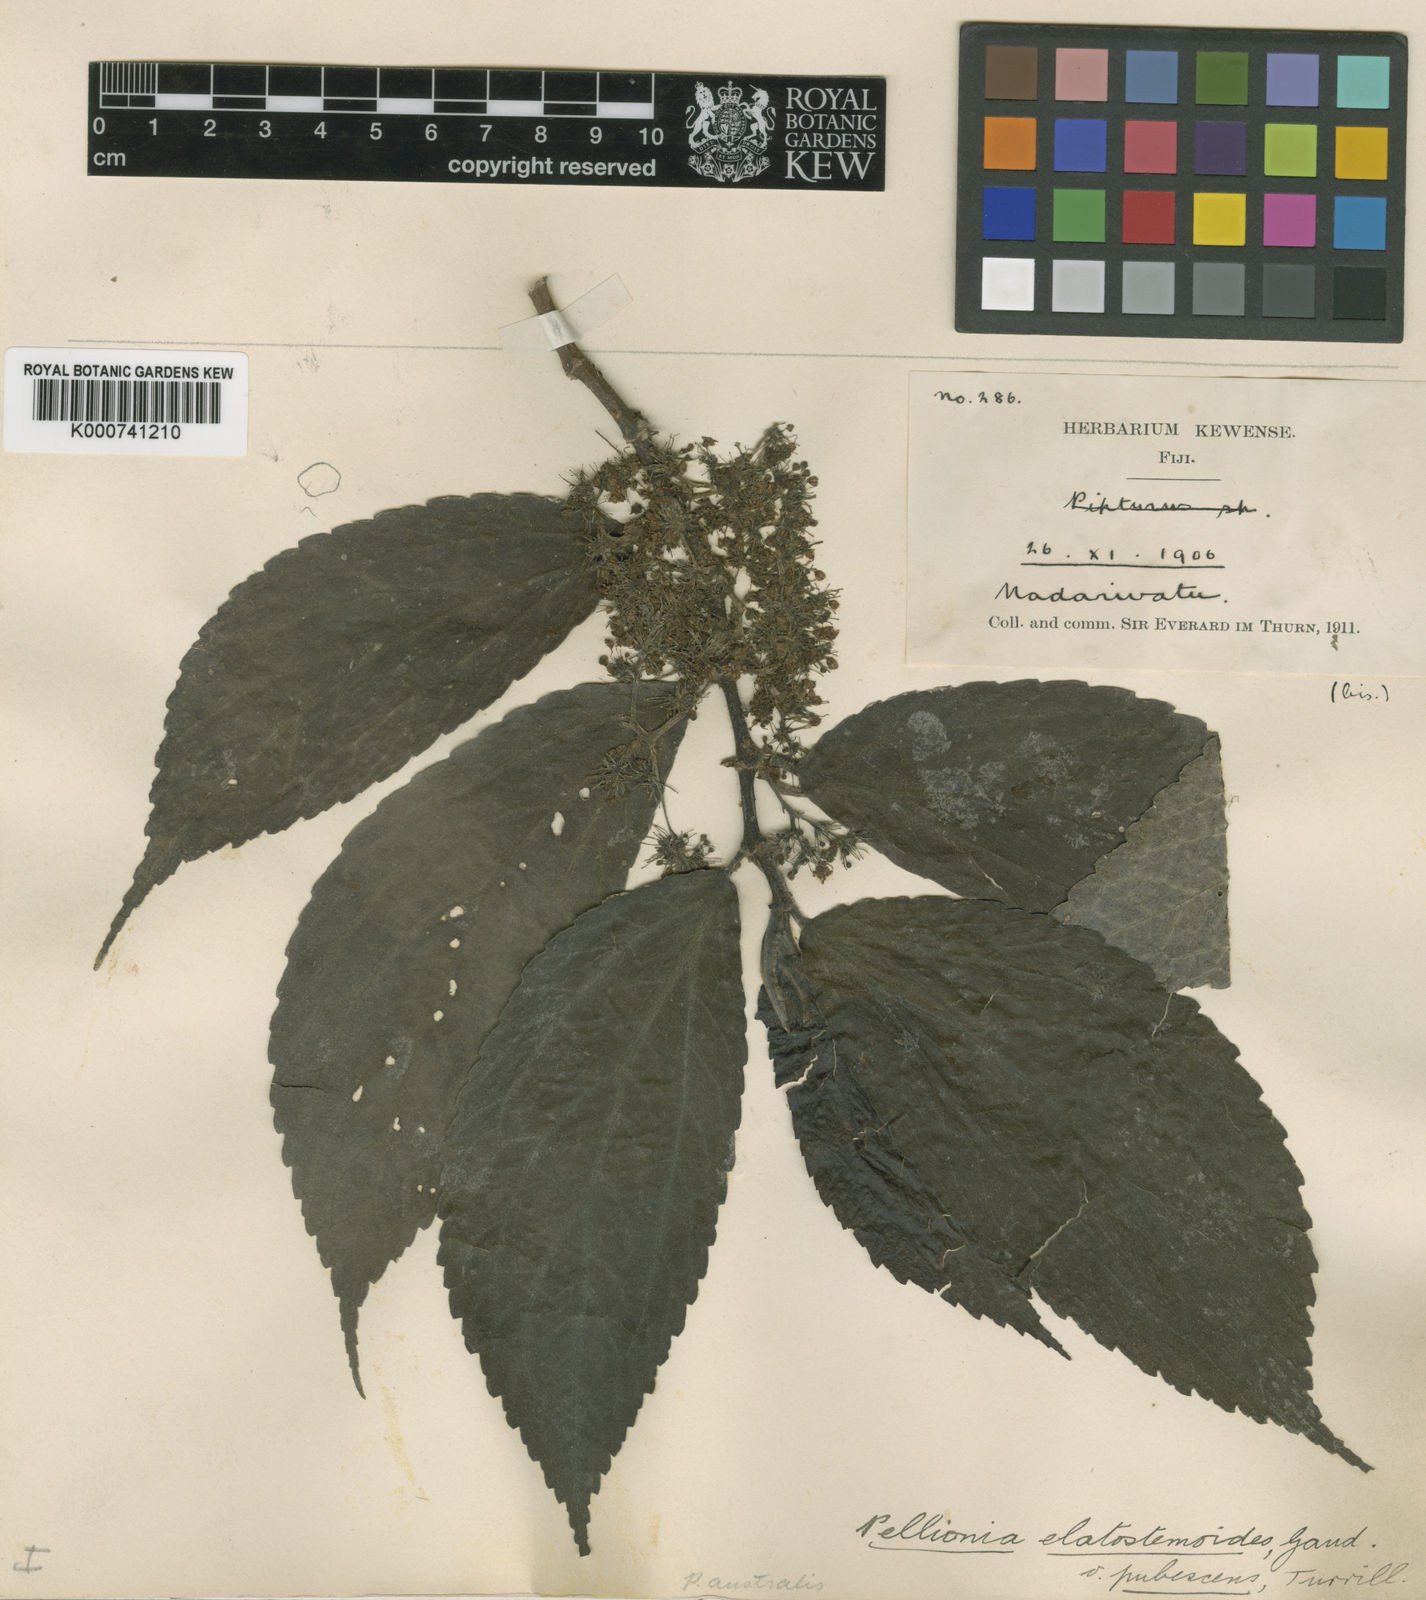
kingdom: Plantae
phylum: Tracheophyta
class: Magnoliopsida
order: Rosales
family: Urticaceae
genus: Elatostematoides
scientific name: Elatostematoides australe
